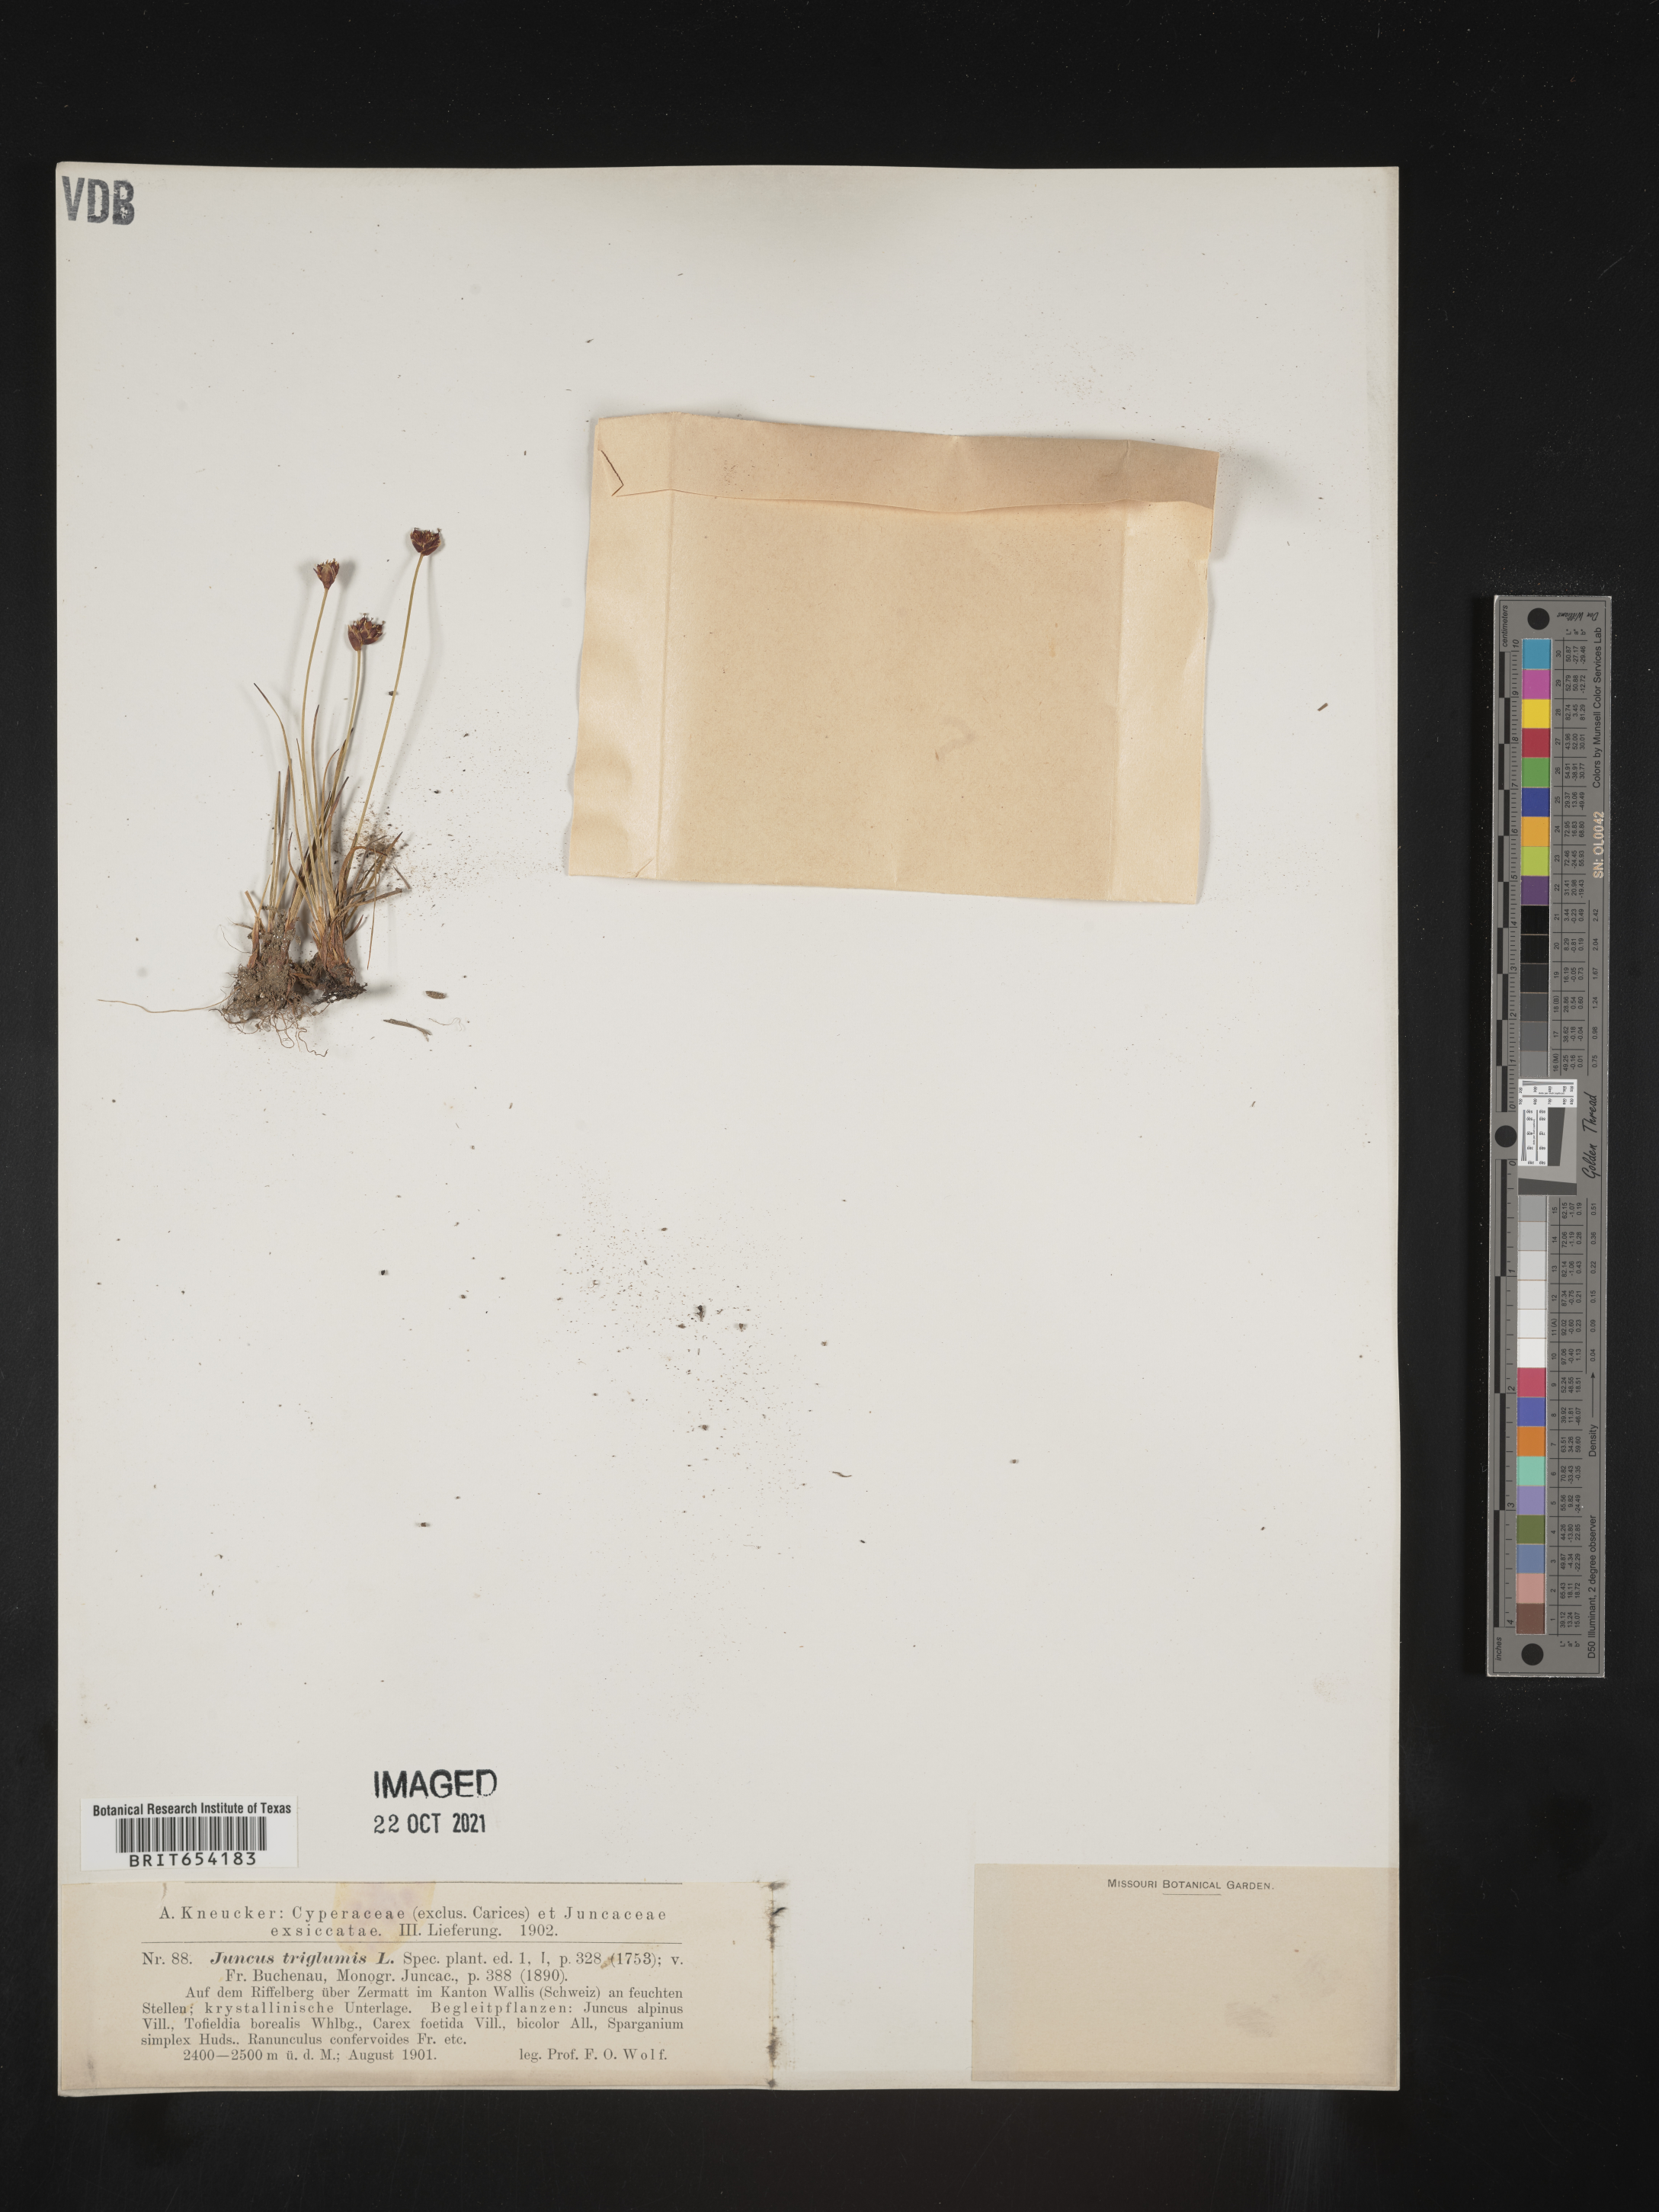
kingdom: Plantae
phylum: Tracheophyta
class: Liliopsida
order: Poales
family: Juncaceae
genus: Juncus
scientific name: Juncus
